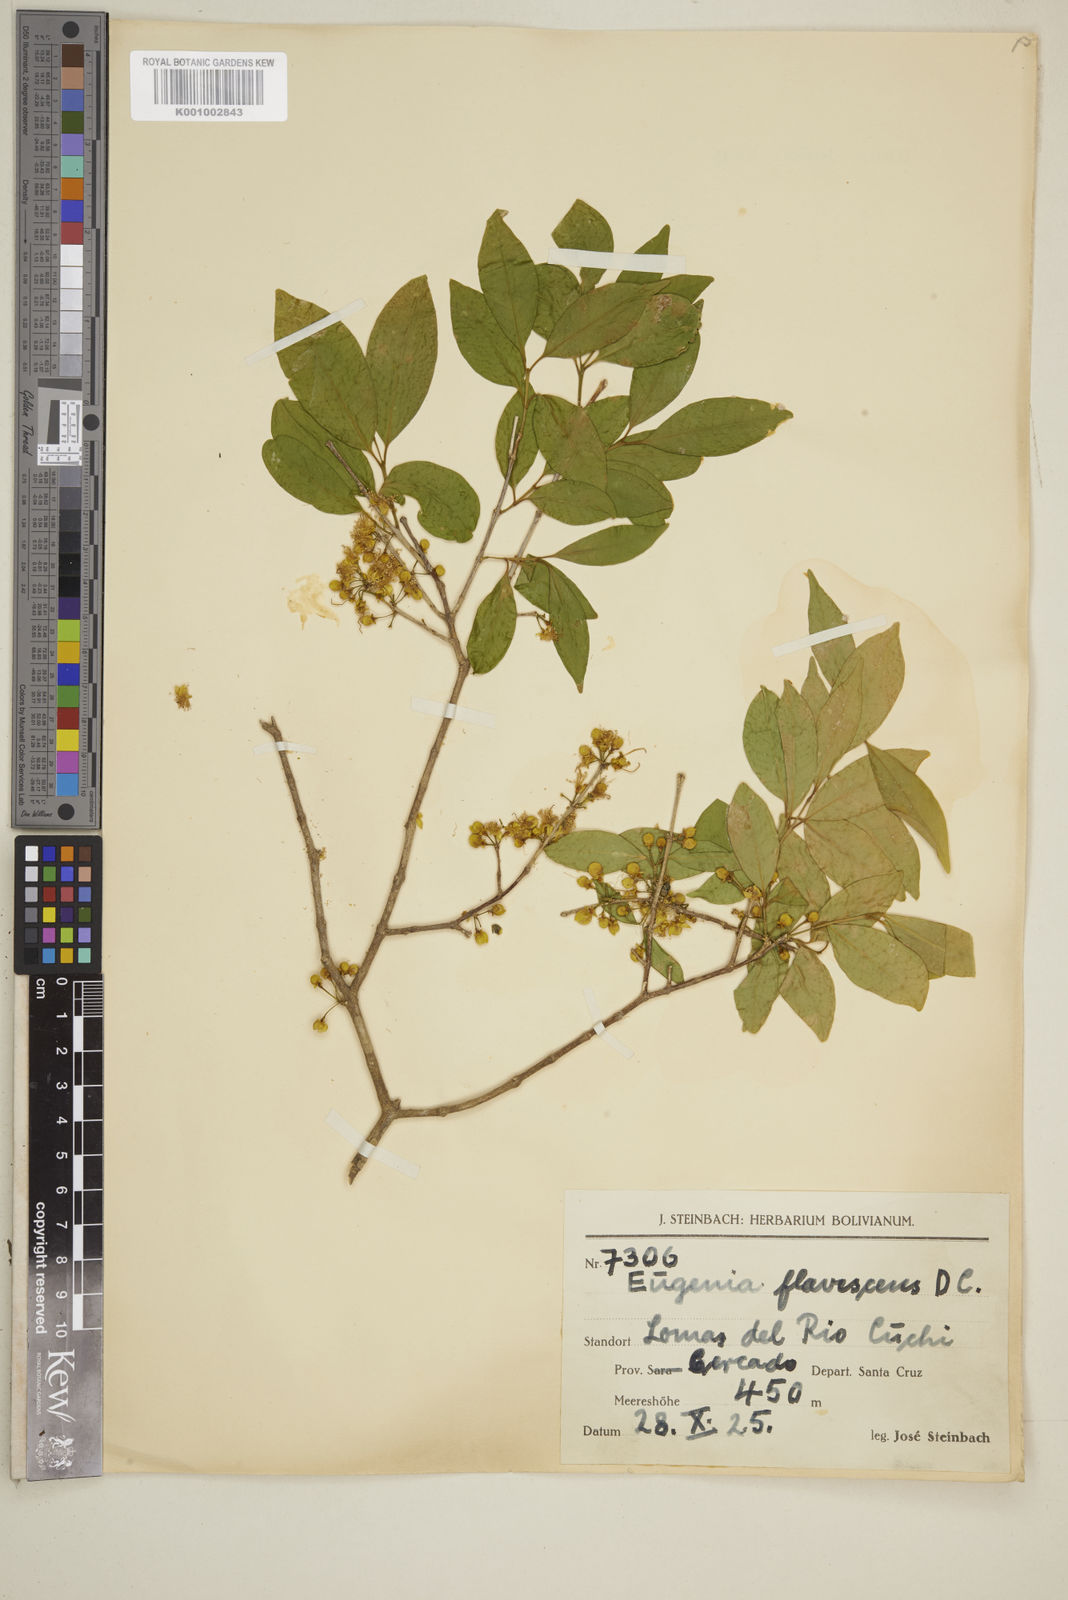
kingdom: Plantae
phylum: Tracheophyta
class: Magnoliopsida
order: Myrtales
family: Myrtaceae
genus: Eugenia
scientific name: Eugenia flavescens
